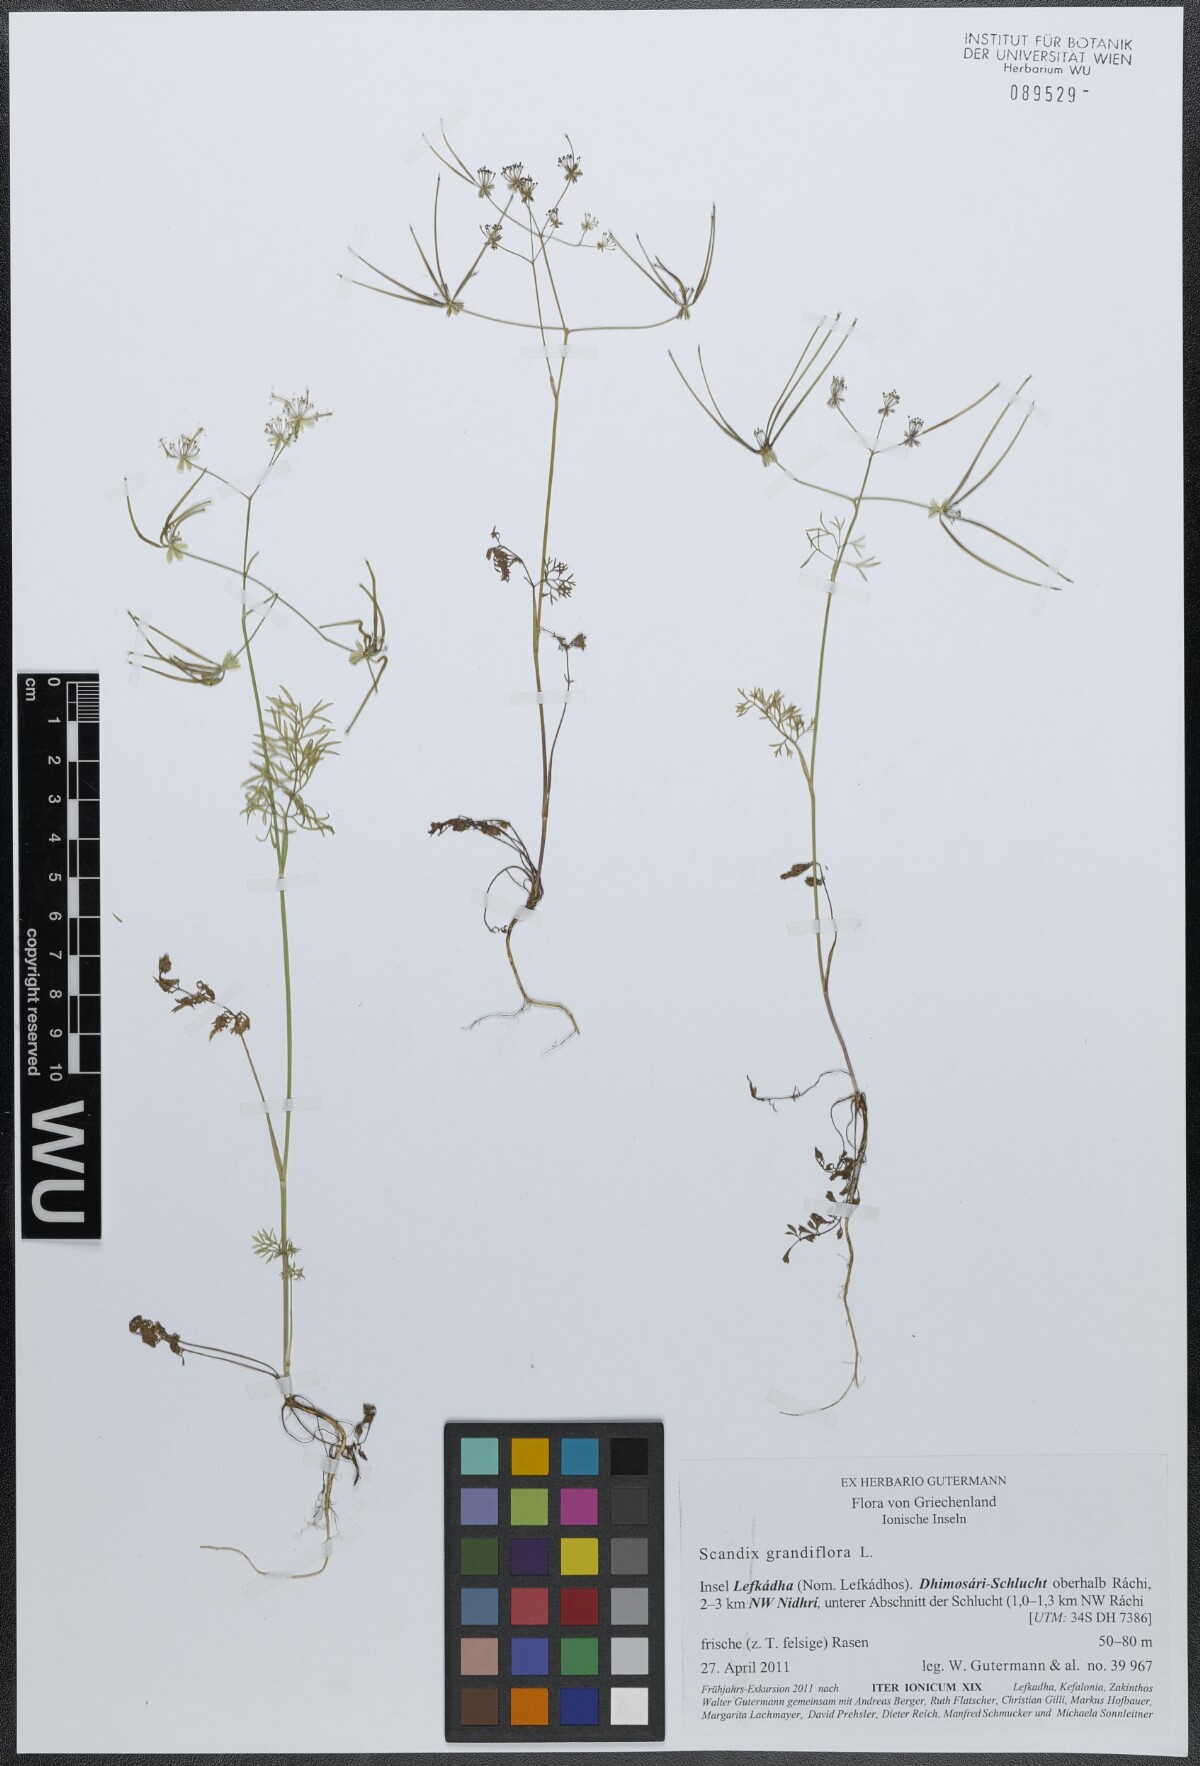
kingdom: Plantae
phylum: Tracheophyta
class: Magnoliopsida
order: Apiales
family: Apiaceae
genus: Scandix
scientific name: Scandix australis
